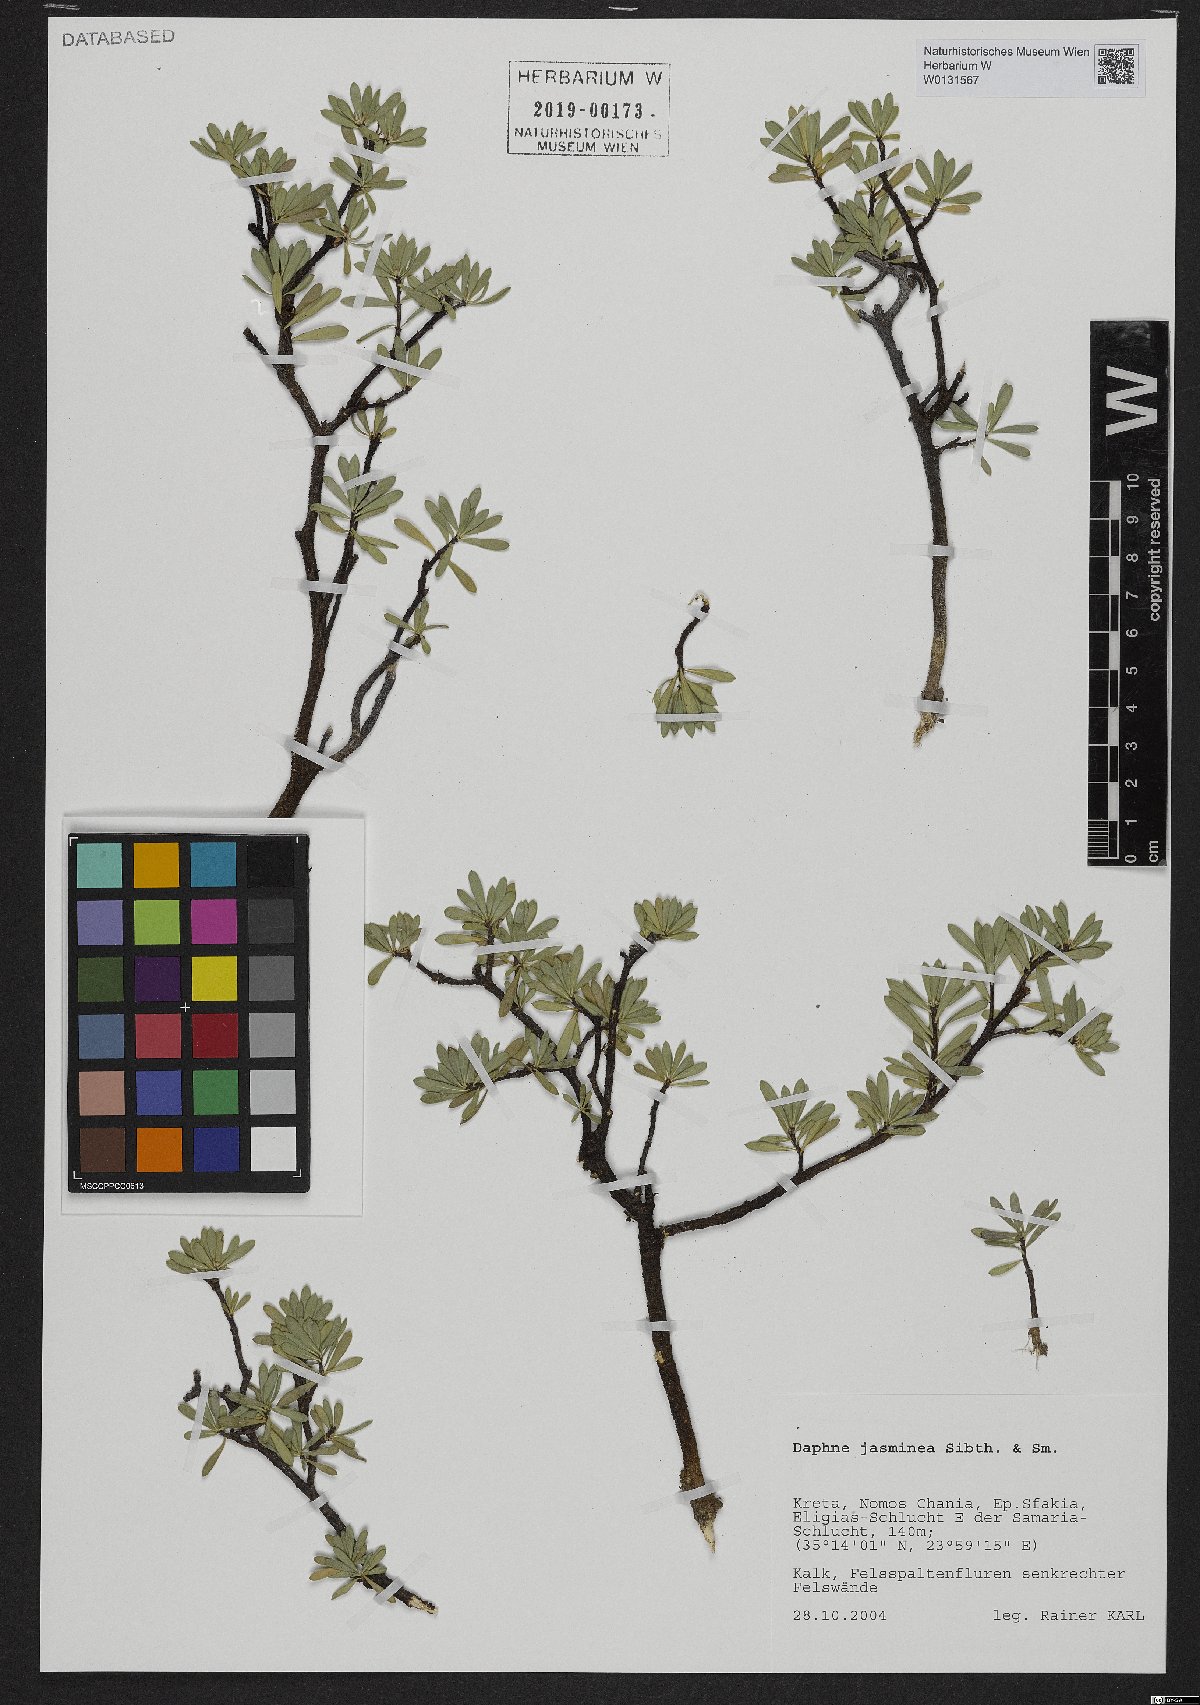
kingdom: Plantae
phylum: Tracheophyta
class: Magnoliopsida
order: Malvales
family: Thymelaeaceae
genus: Daphne
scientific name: Daphne jasminea
